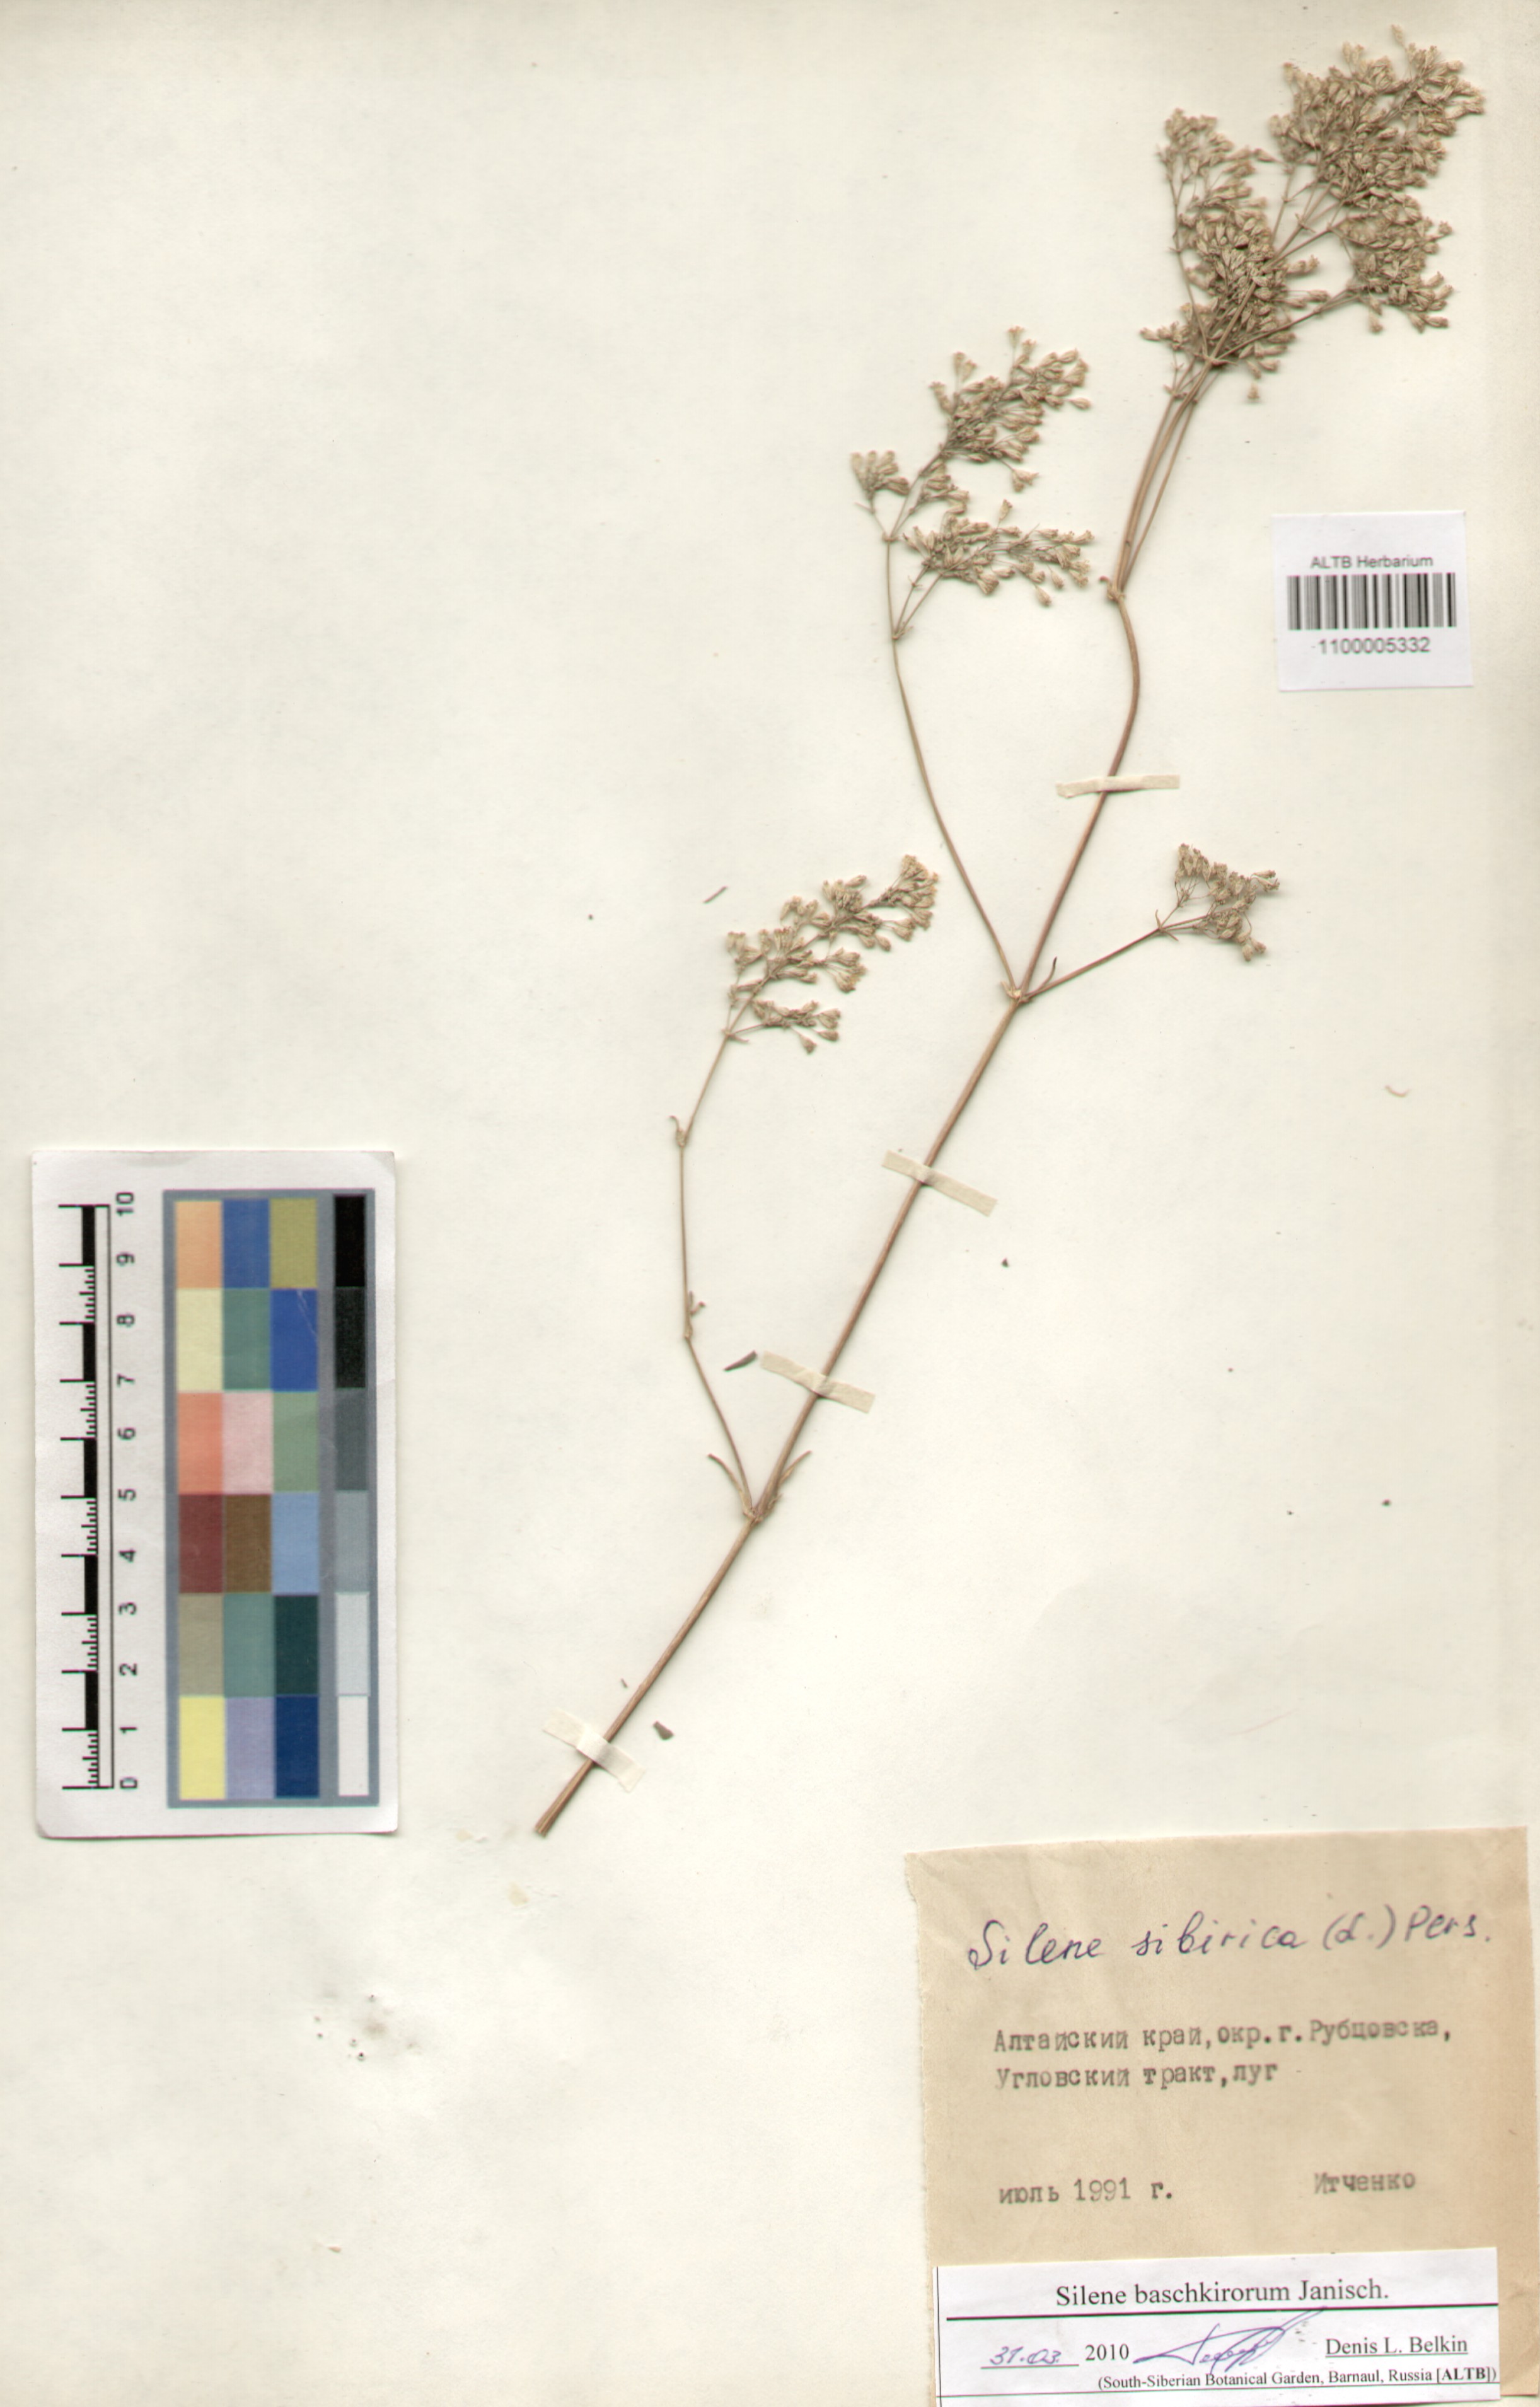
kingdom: Plantae
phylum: Tracheophyta
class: Magnoliopsida
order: Caryophyllales
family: Caryophyllaceae
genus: Silene
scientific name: Silene baschkirorum
